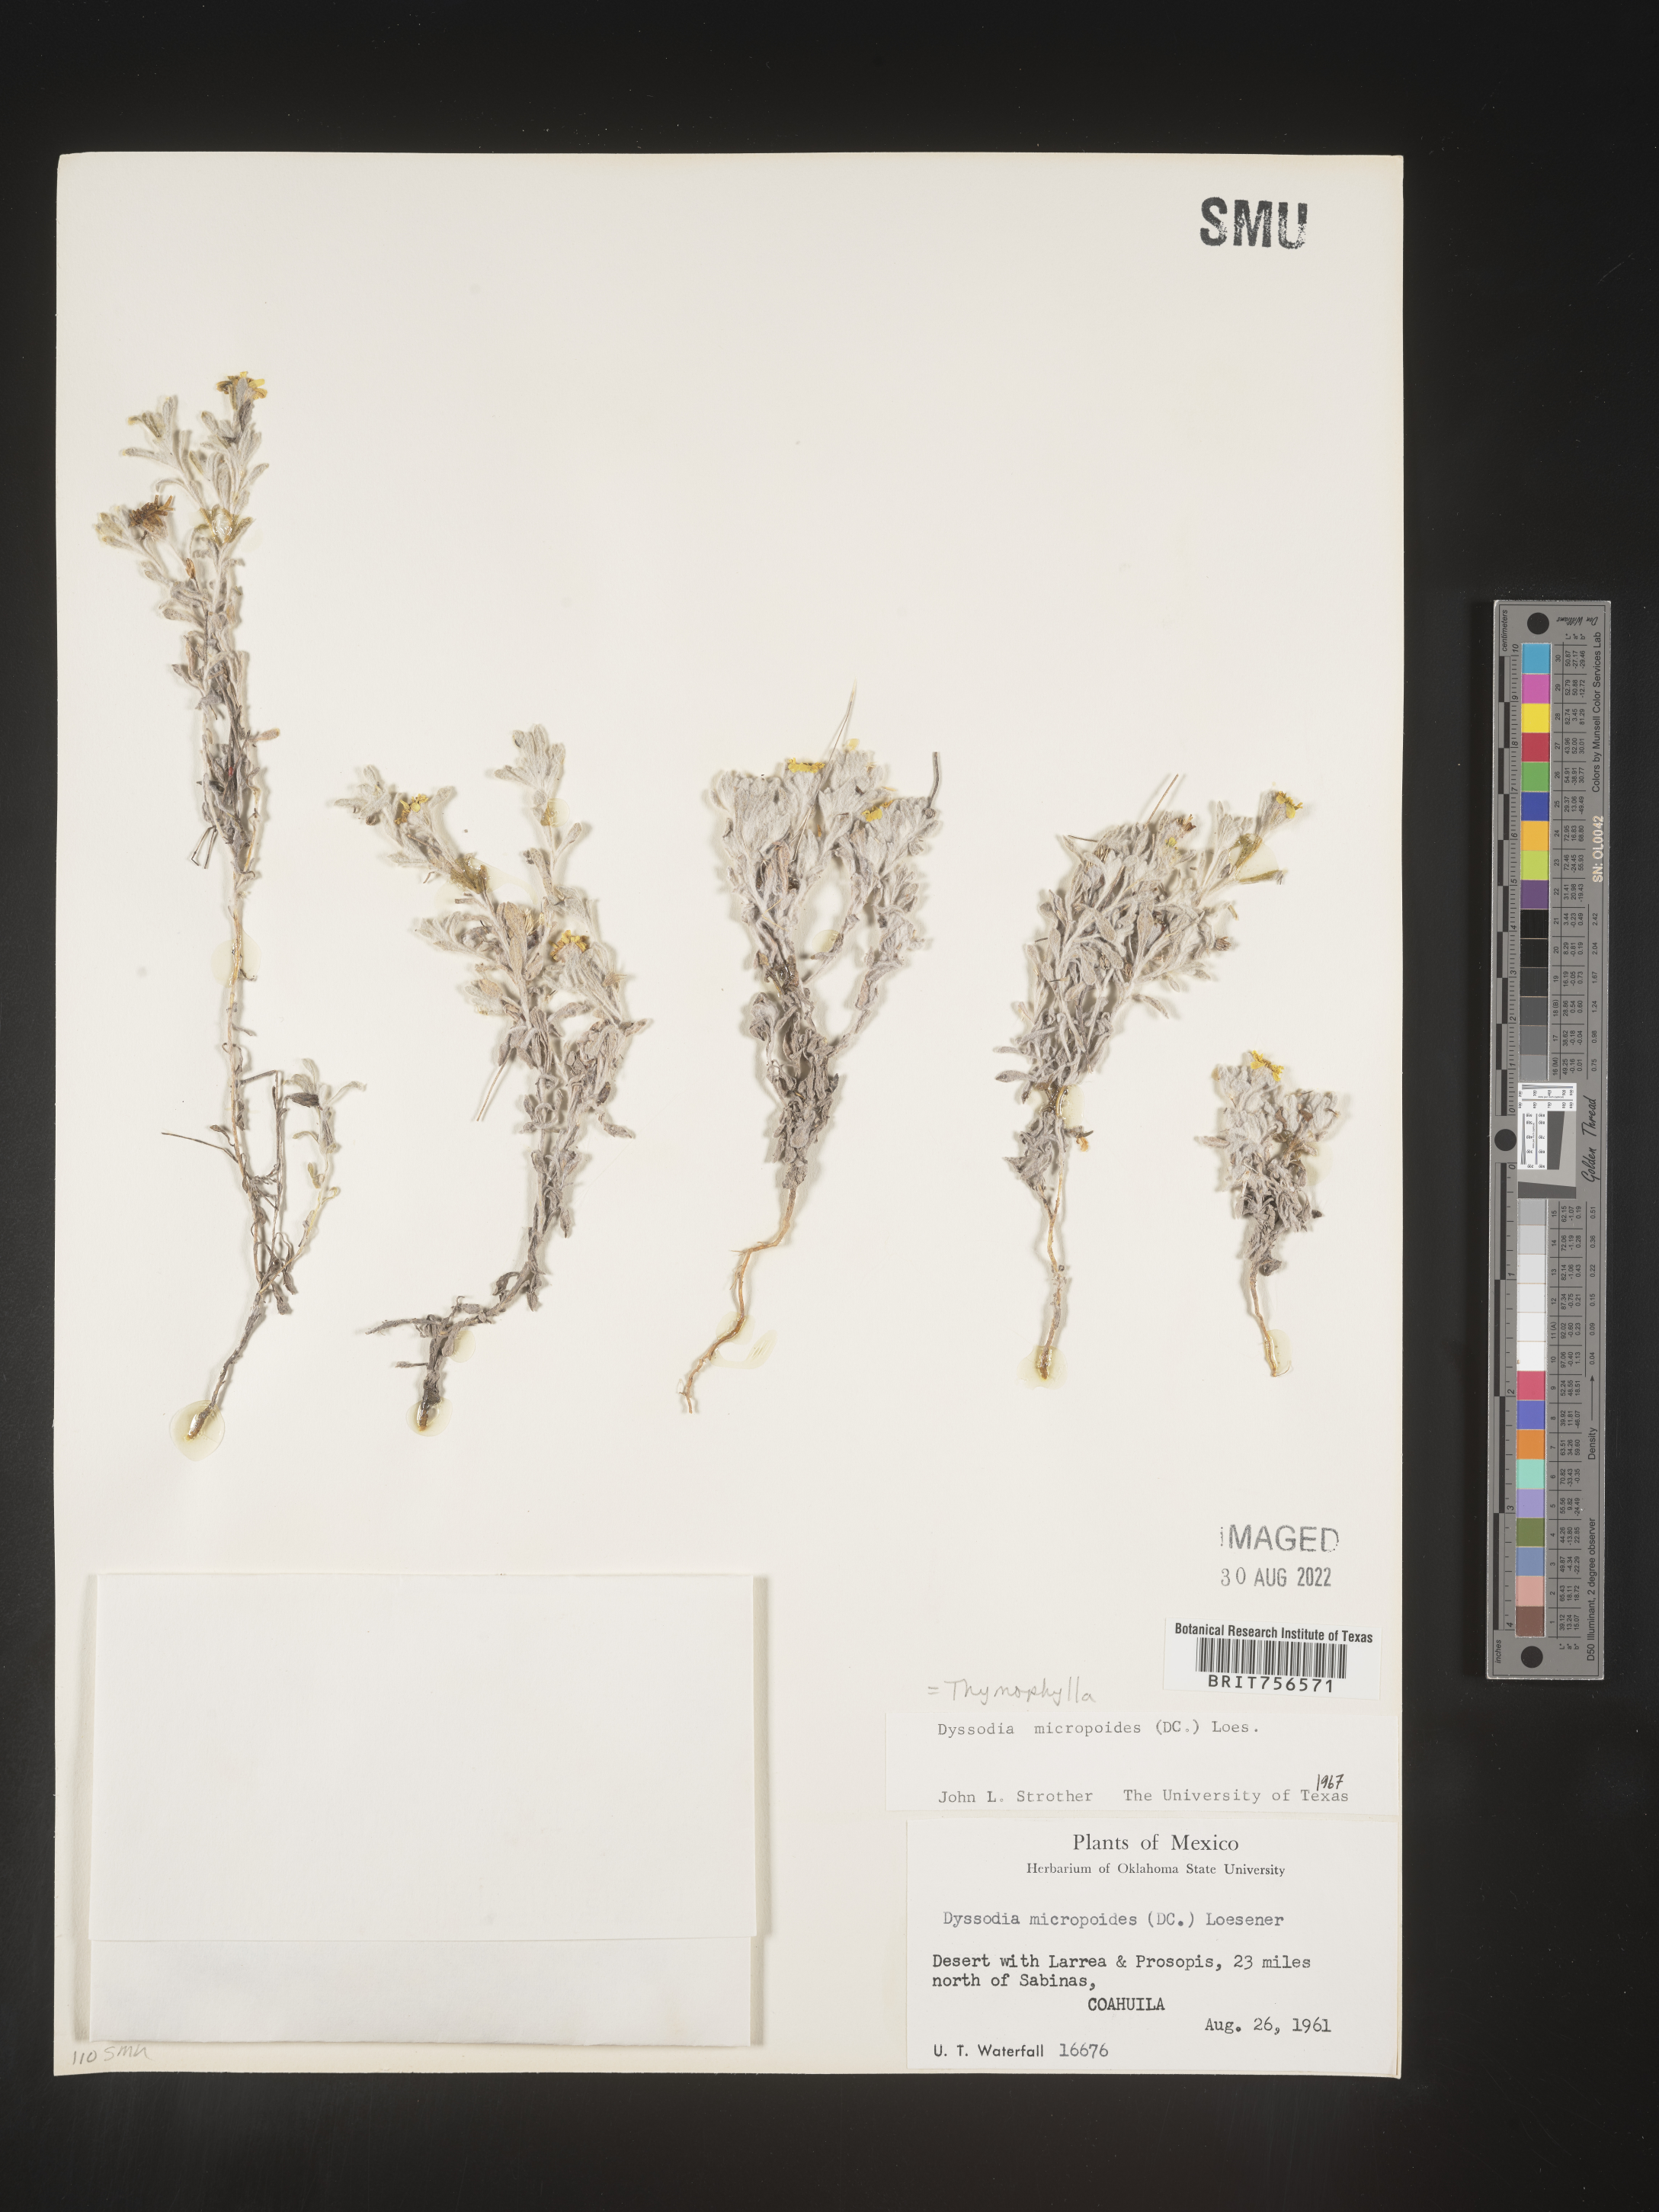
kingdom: Plantae
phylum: Tracheophyta
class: Magnoliopsida
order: Asterales
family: Asteraceae
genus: Thymophylla
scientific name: Thymophylla micropoides
